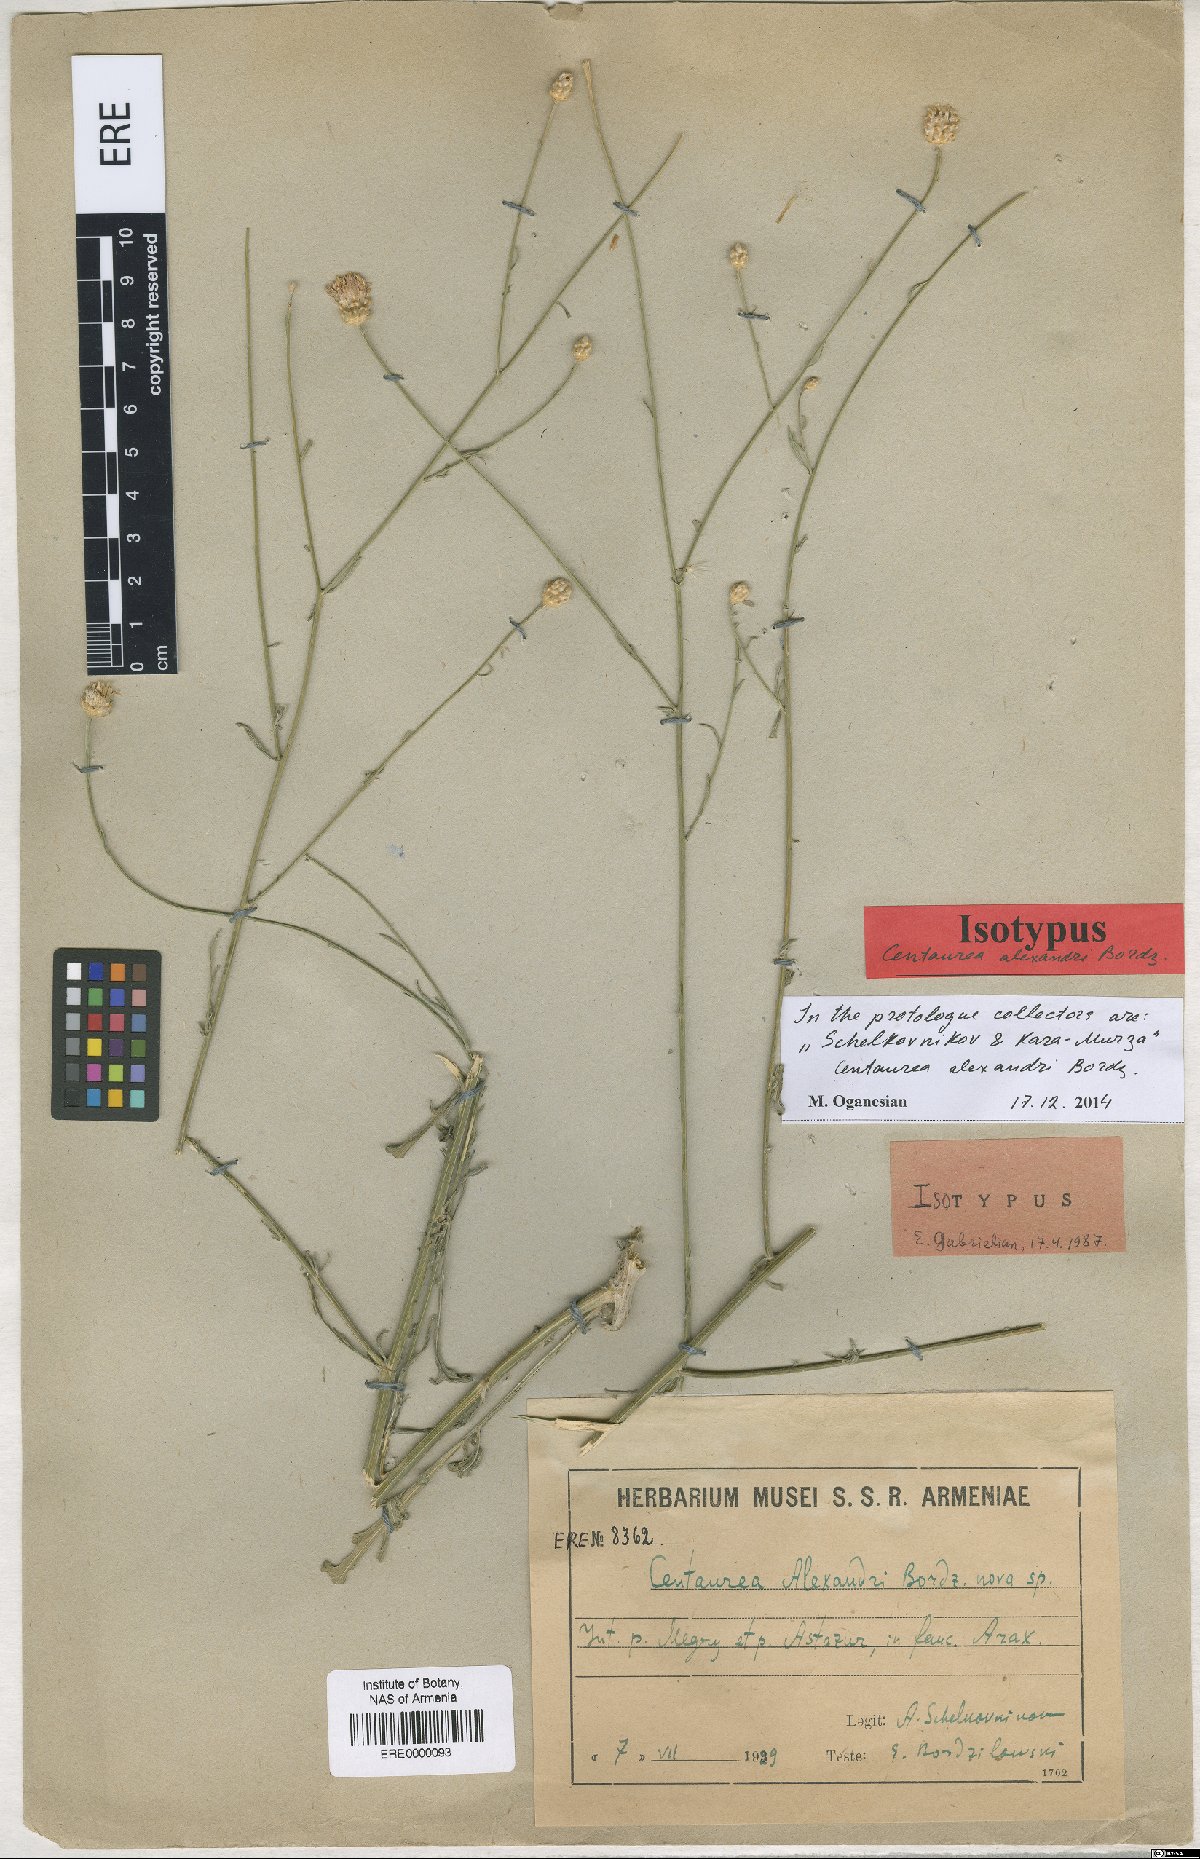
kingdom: Plantae
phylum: Tracheophyta
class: Magnoliopsida
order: Asterales
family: Asteraceae
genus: Centaurea
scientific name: Centaurea transcaucasica
